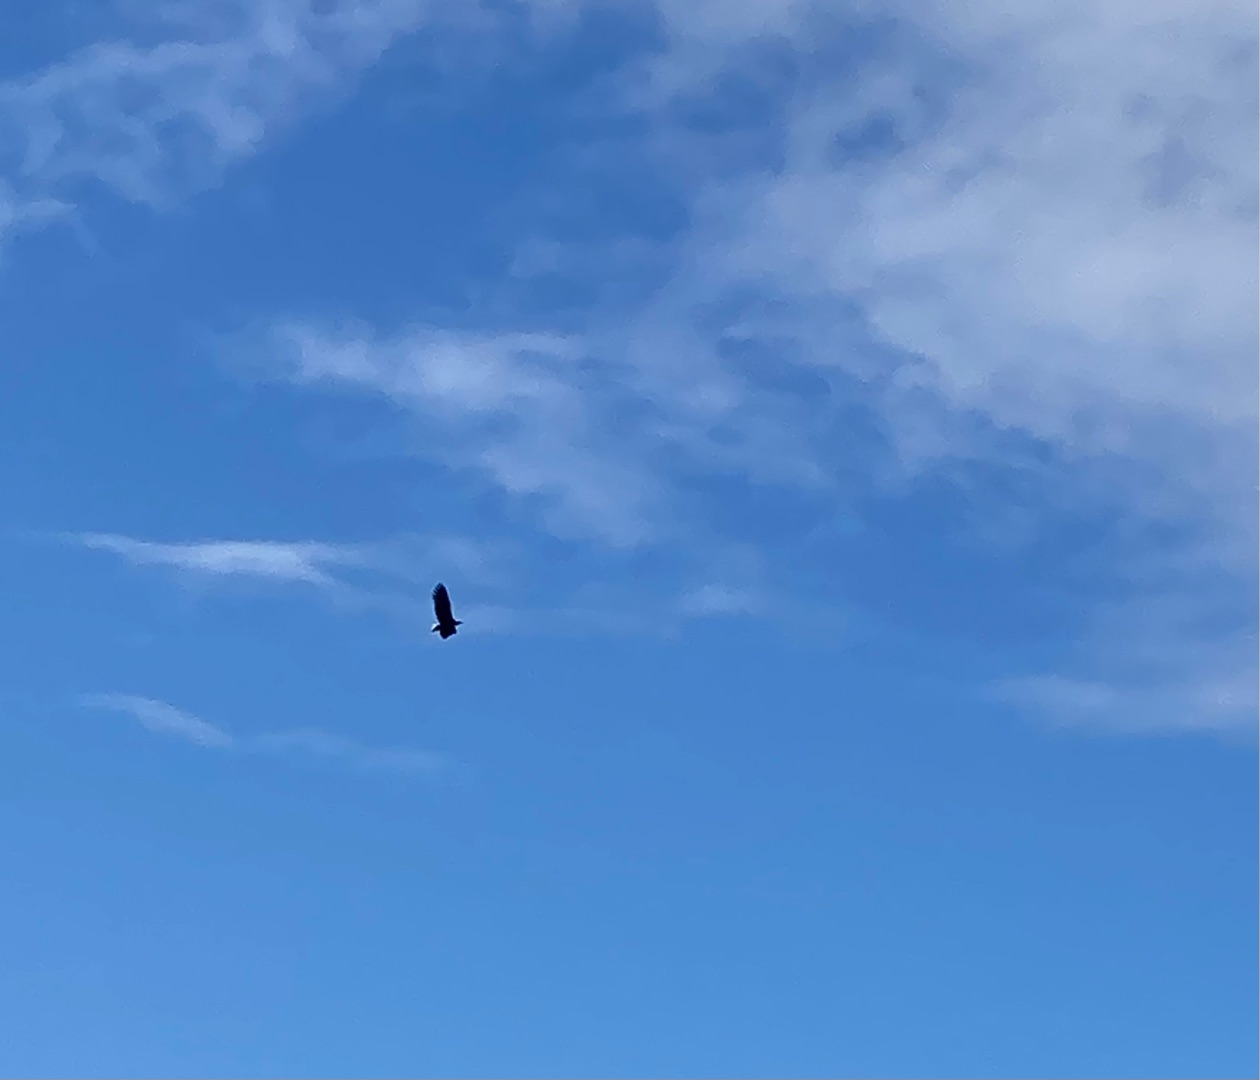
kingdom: Animalia
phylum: Chordata
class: Aves
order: Accipitriformes
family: Accipitridae
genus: Haliaeetus
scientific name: Haliaeetus albicilla
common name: Havørn
